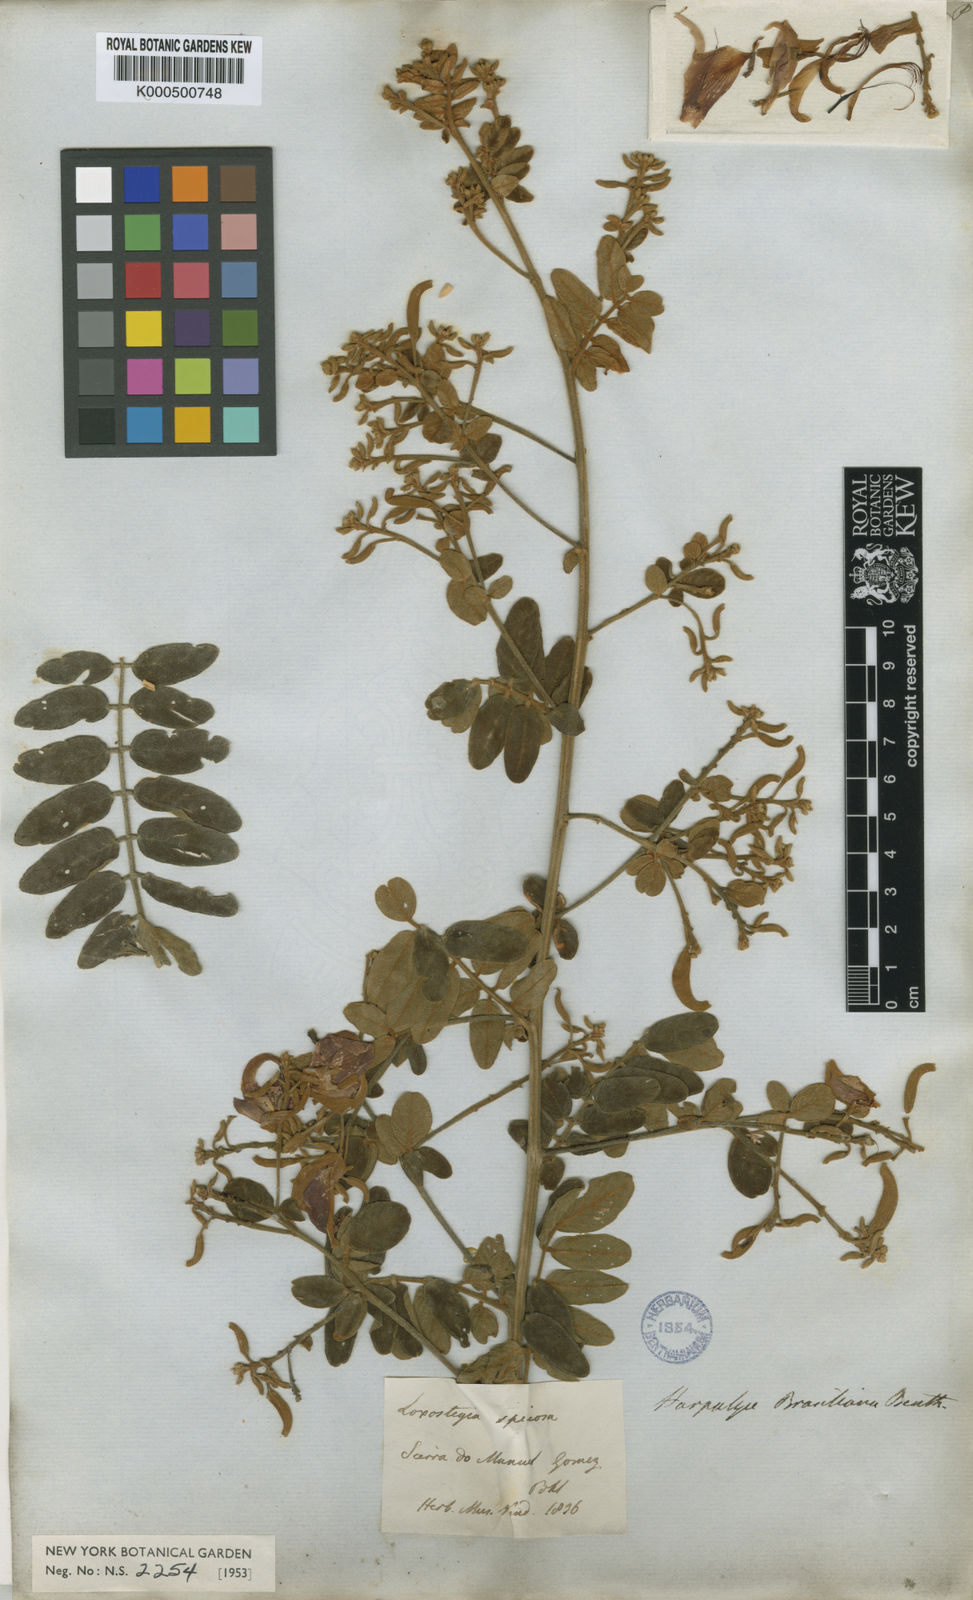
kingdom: Plantae
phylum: Tracheophyta
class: Magnoliopsida
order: Fabales
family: Fabaceae
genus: Harpalyce
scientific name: Harpalyce brasiliana
